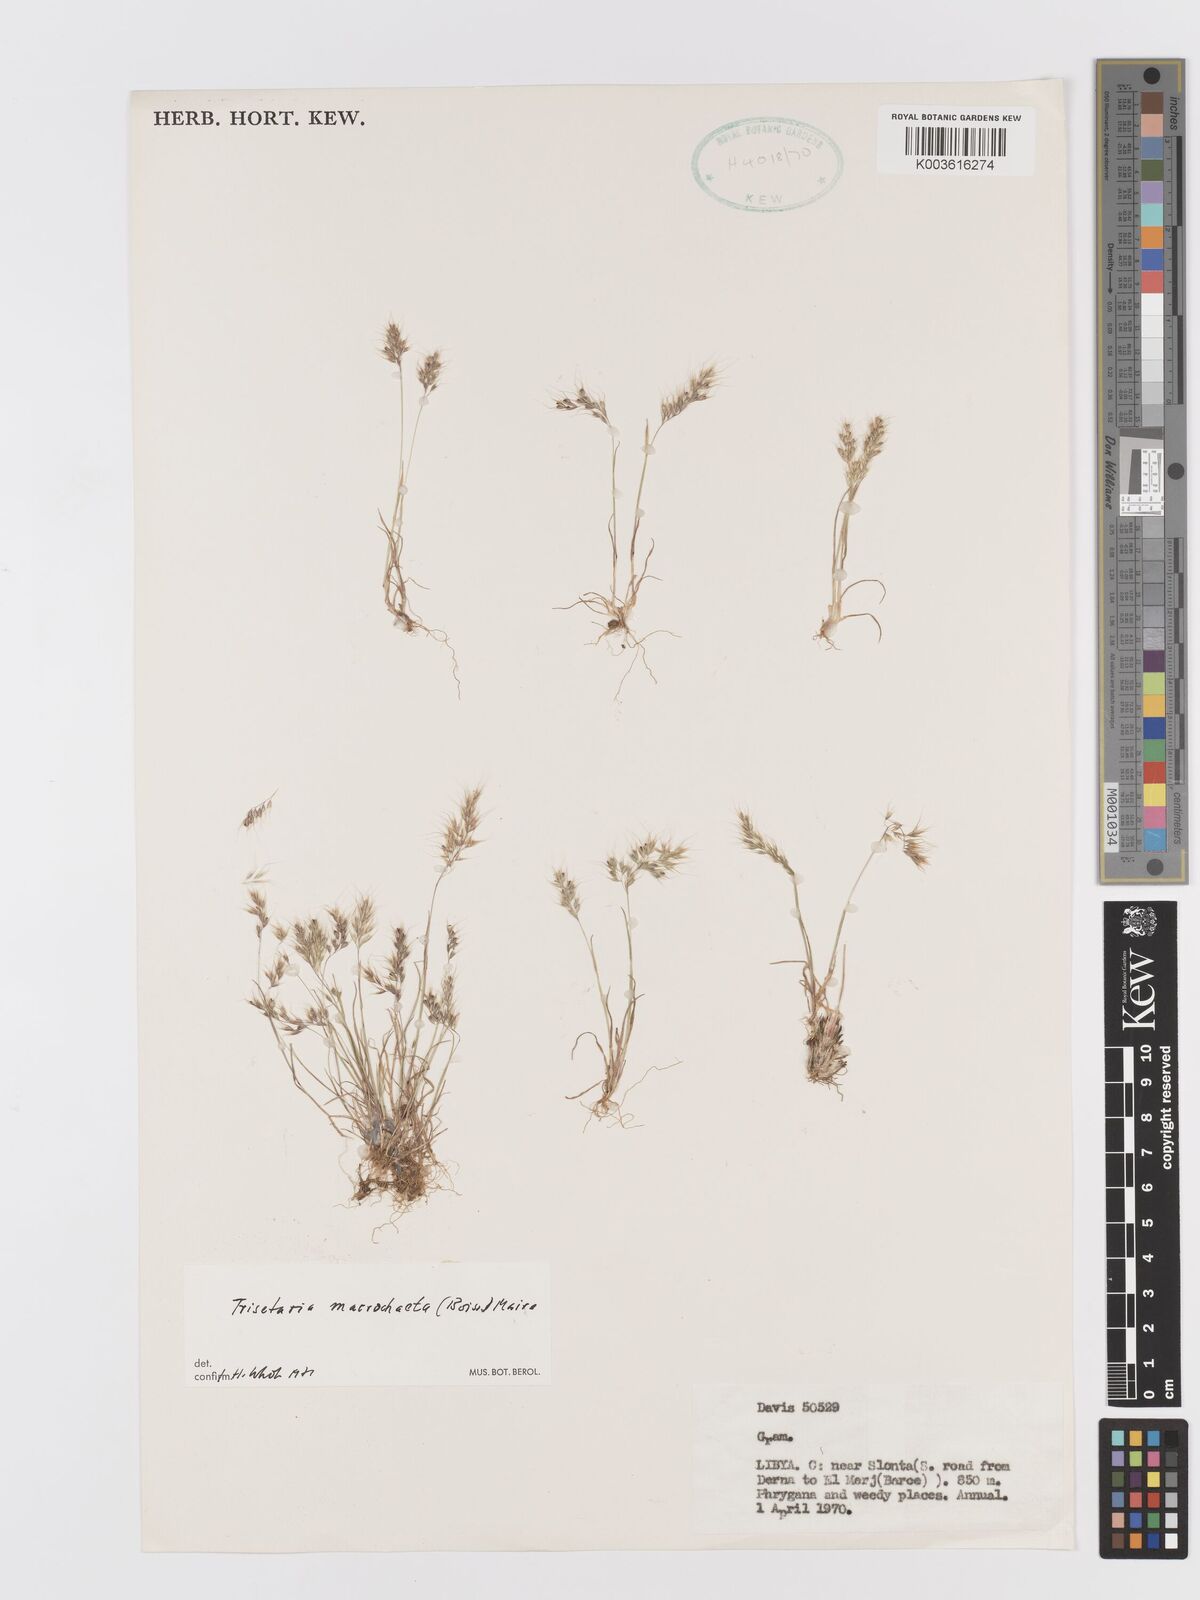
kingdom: Plantae
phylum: Tracheophyta
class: Liliopsida
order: Poales
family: Poaceae
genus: Trisetaria
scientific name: Trisetaria macrochaeta
